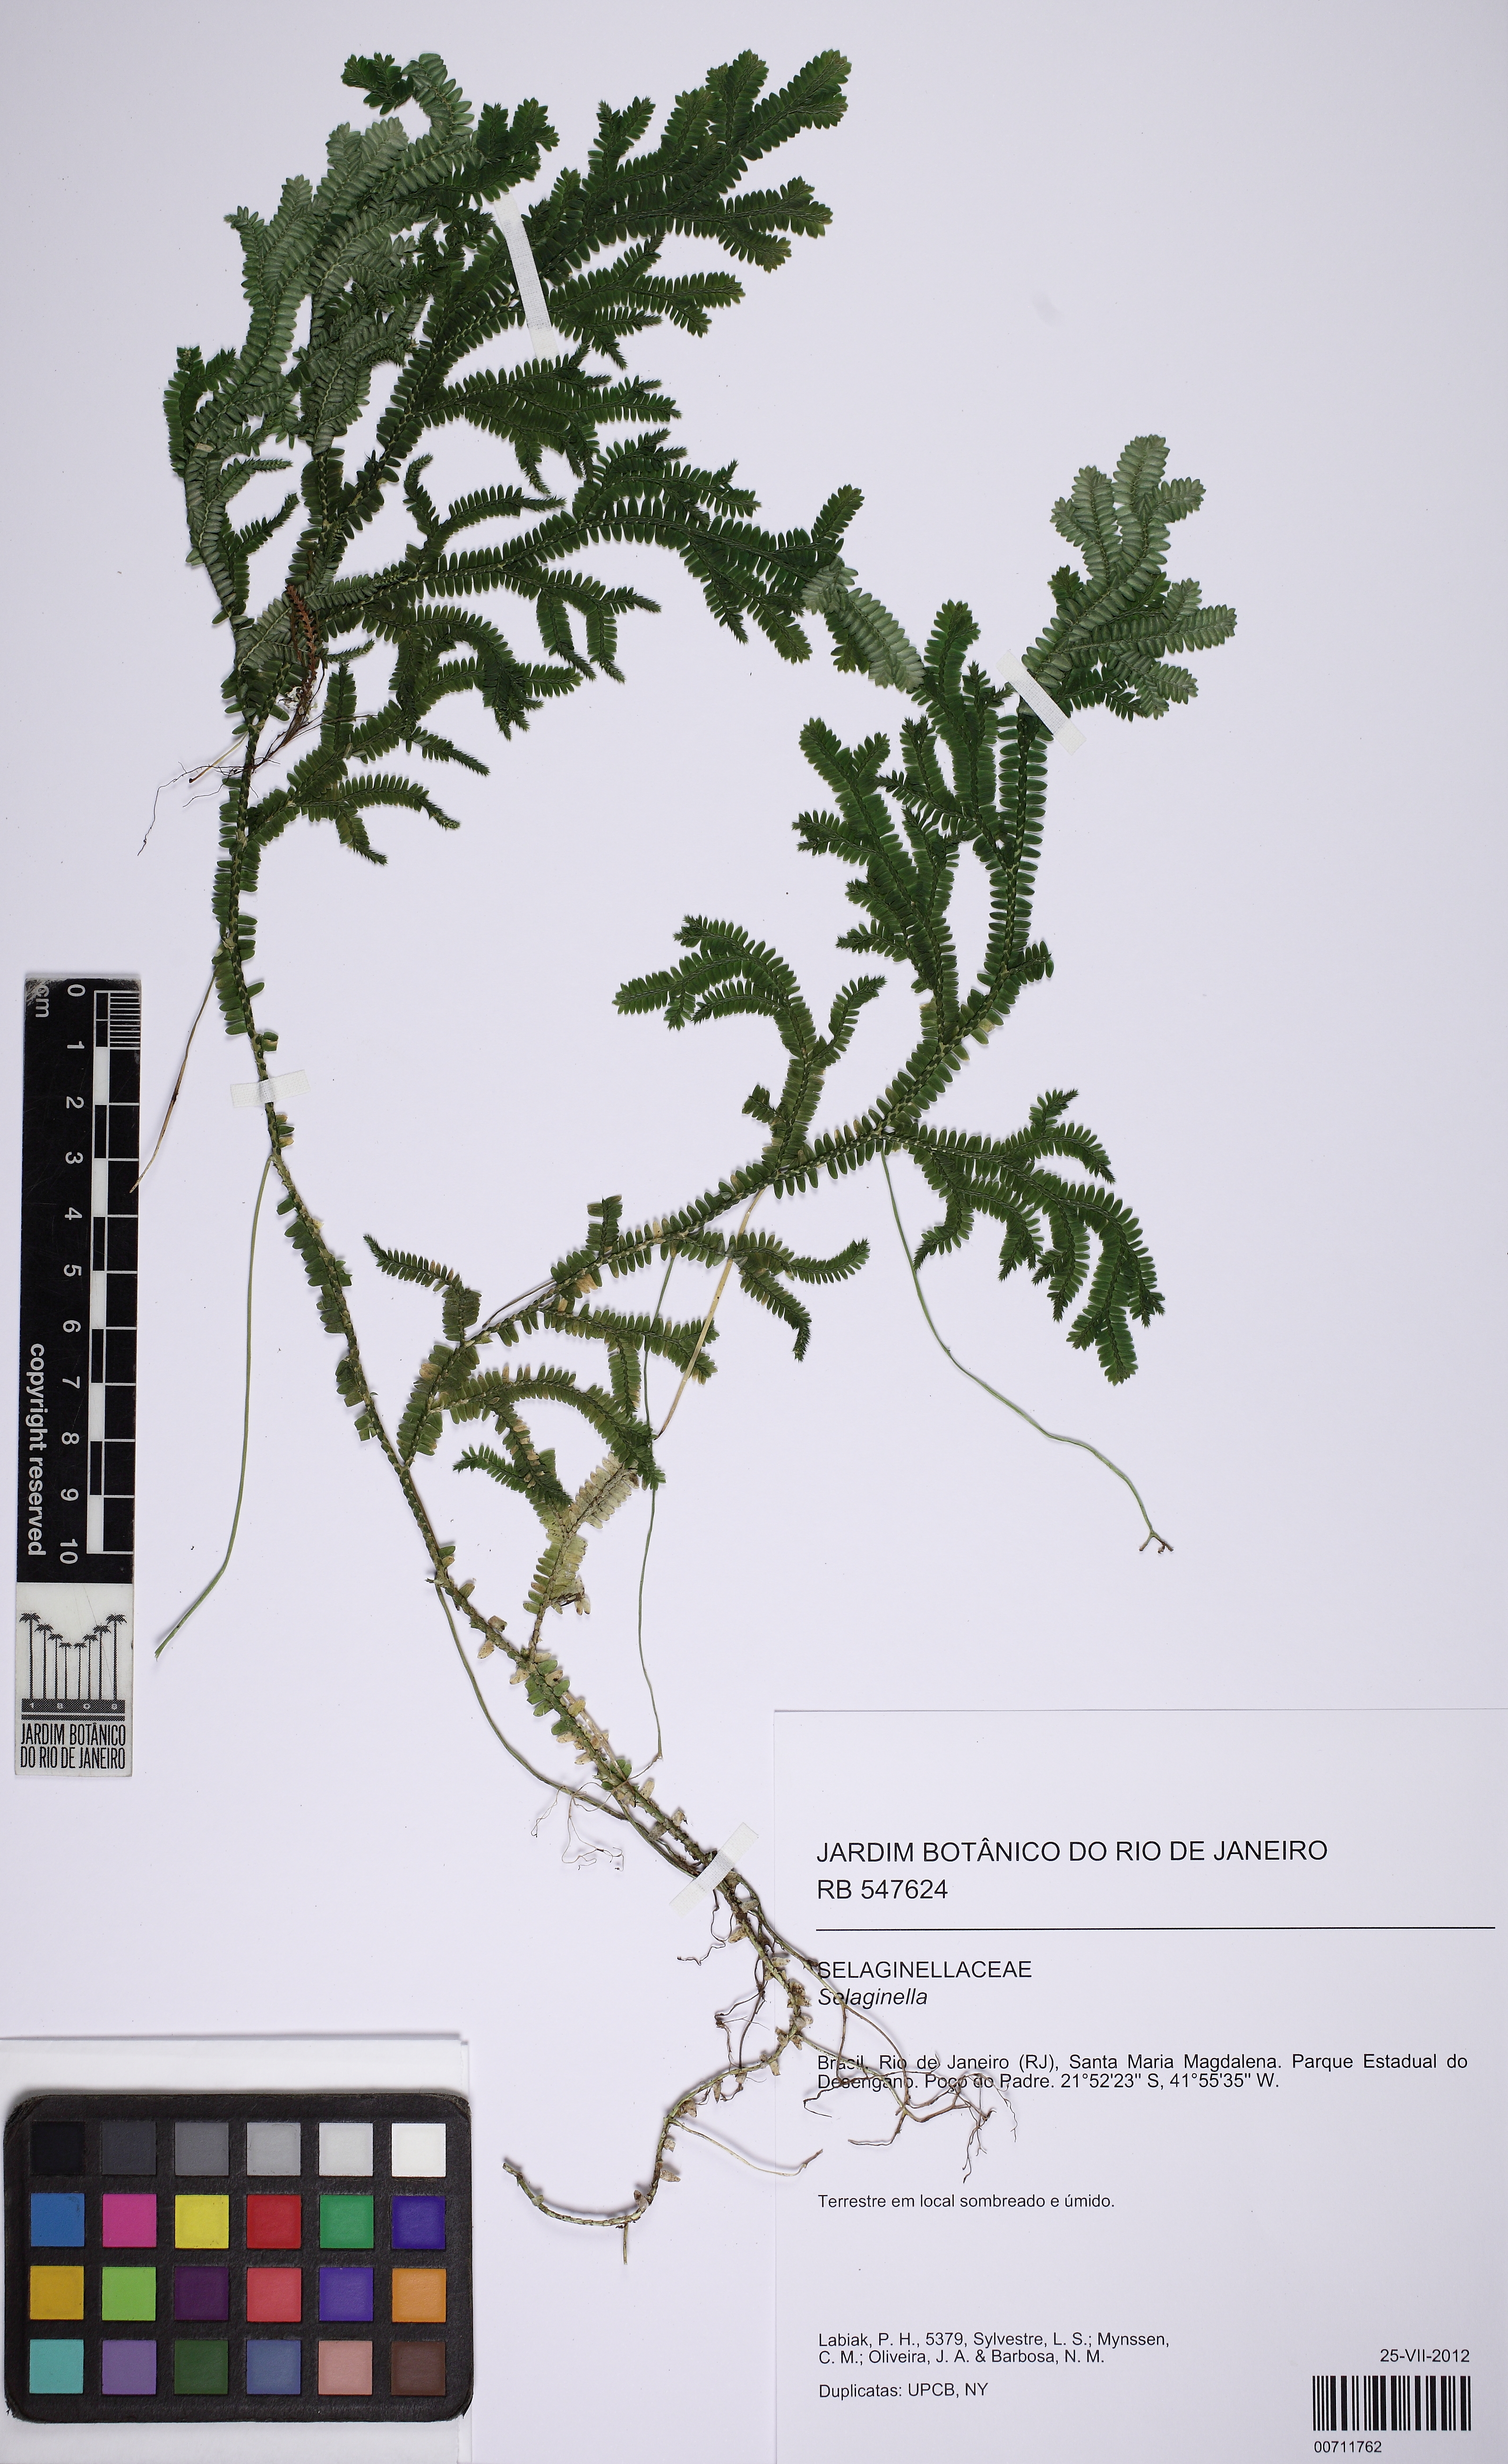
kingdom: Plantae
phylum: Tracheophyta
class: Lycopodiopsida
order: Selaginellales
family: Selaginellaceae
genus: Selaginella
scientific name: Selaginella flexuosa
